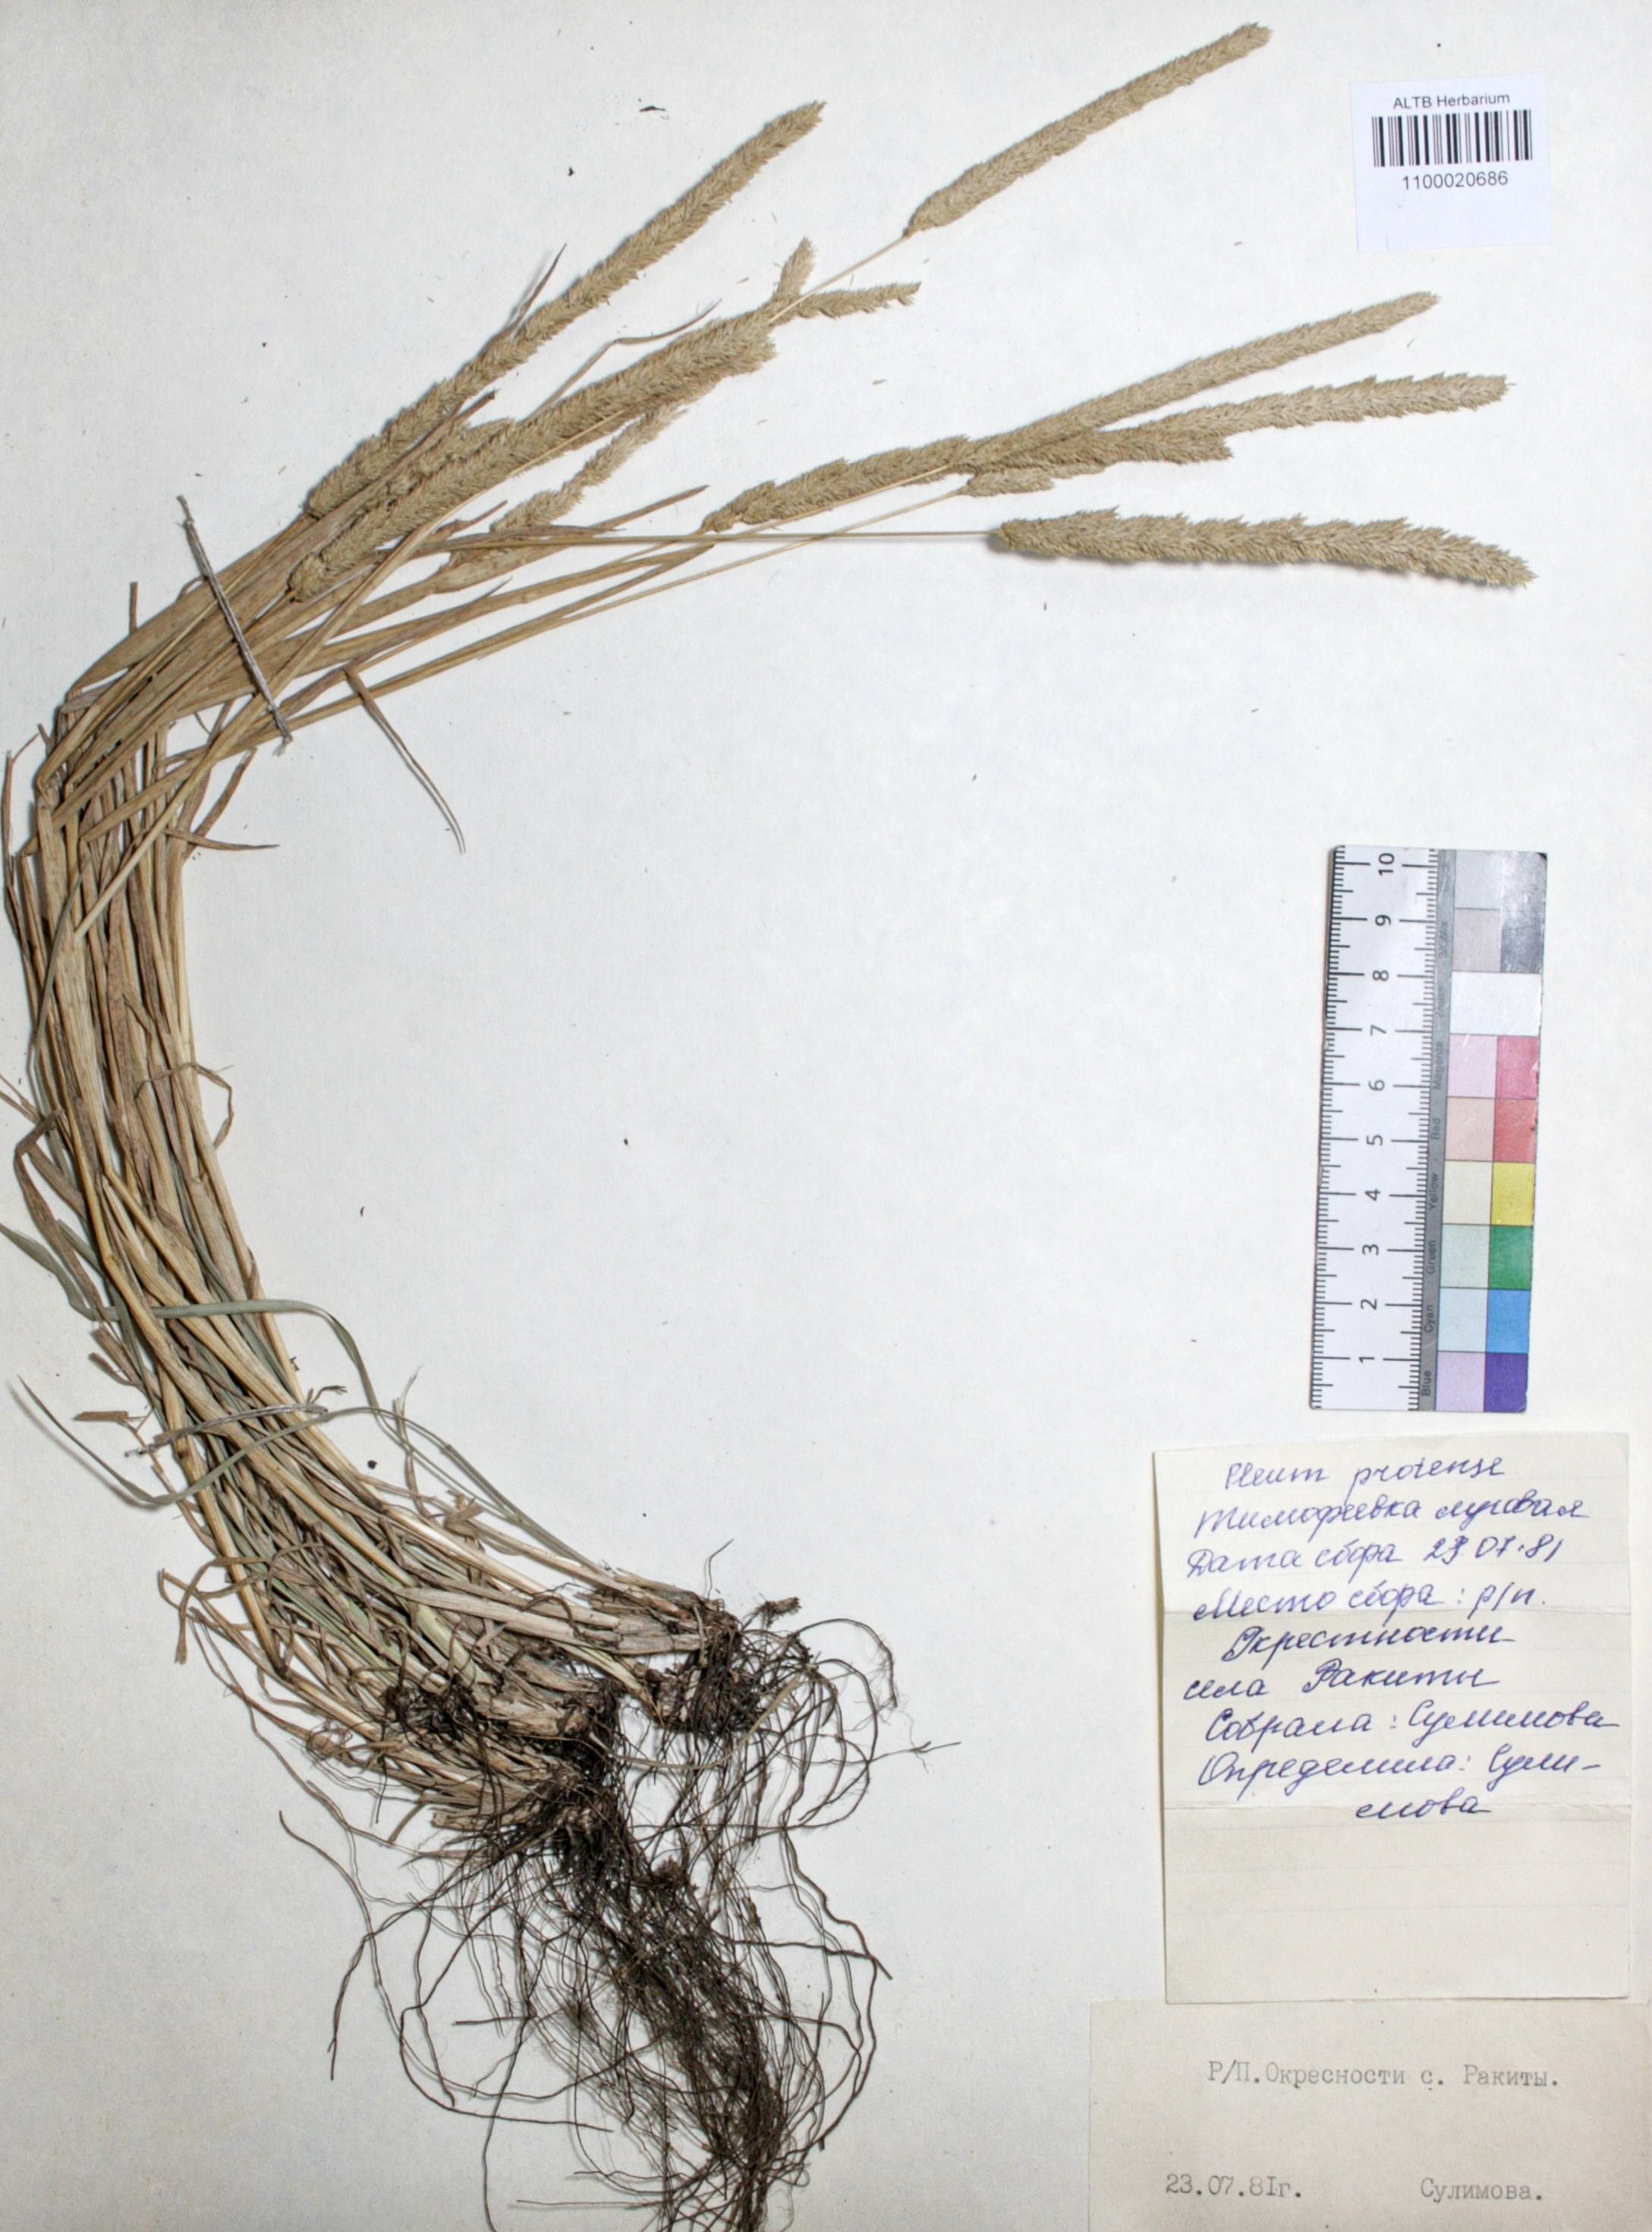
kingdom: Plantae
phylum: Tracheophyta
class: Liliopsida
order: Poales
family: Poaceae
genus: Phleum
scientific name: Phleum phleoides
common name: Purple-stem cat's-tail
